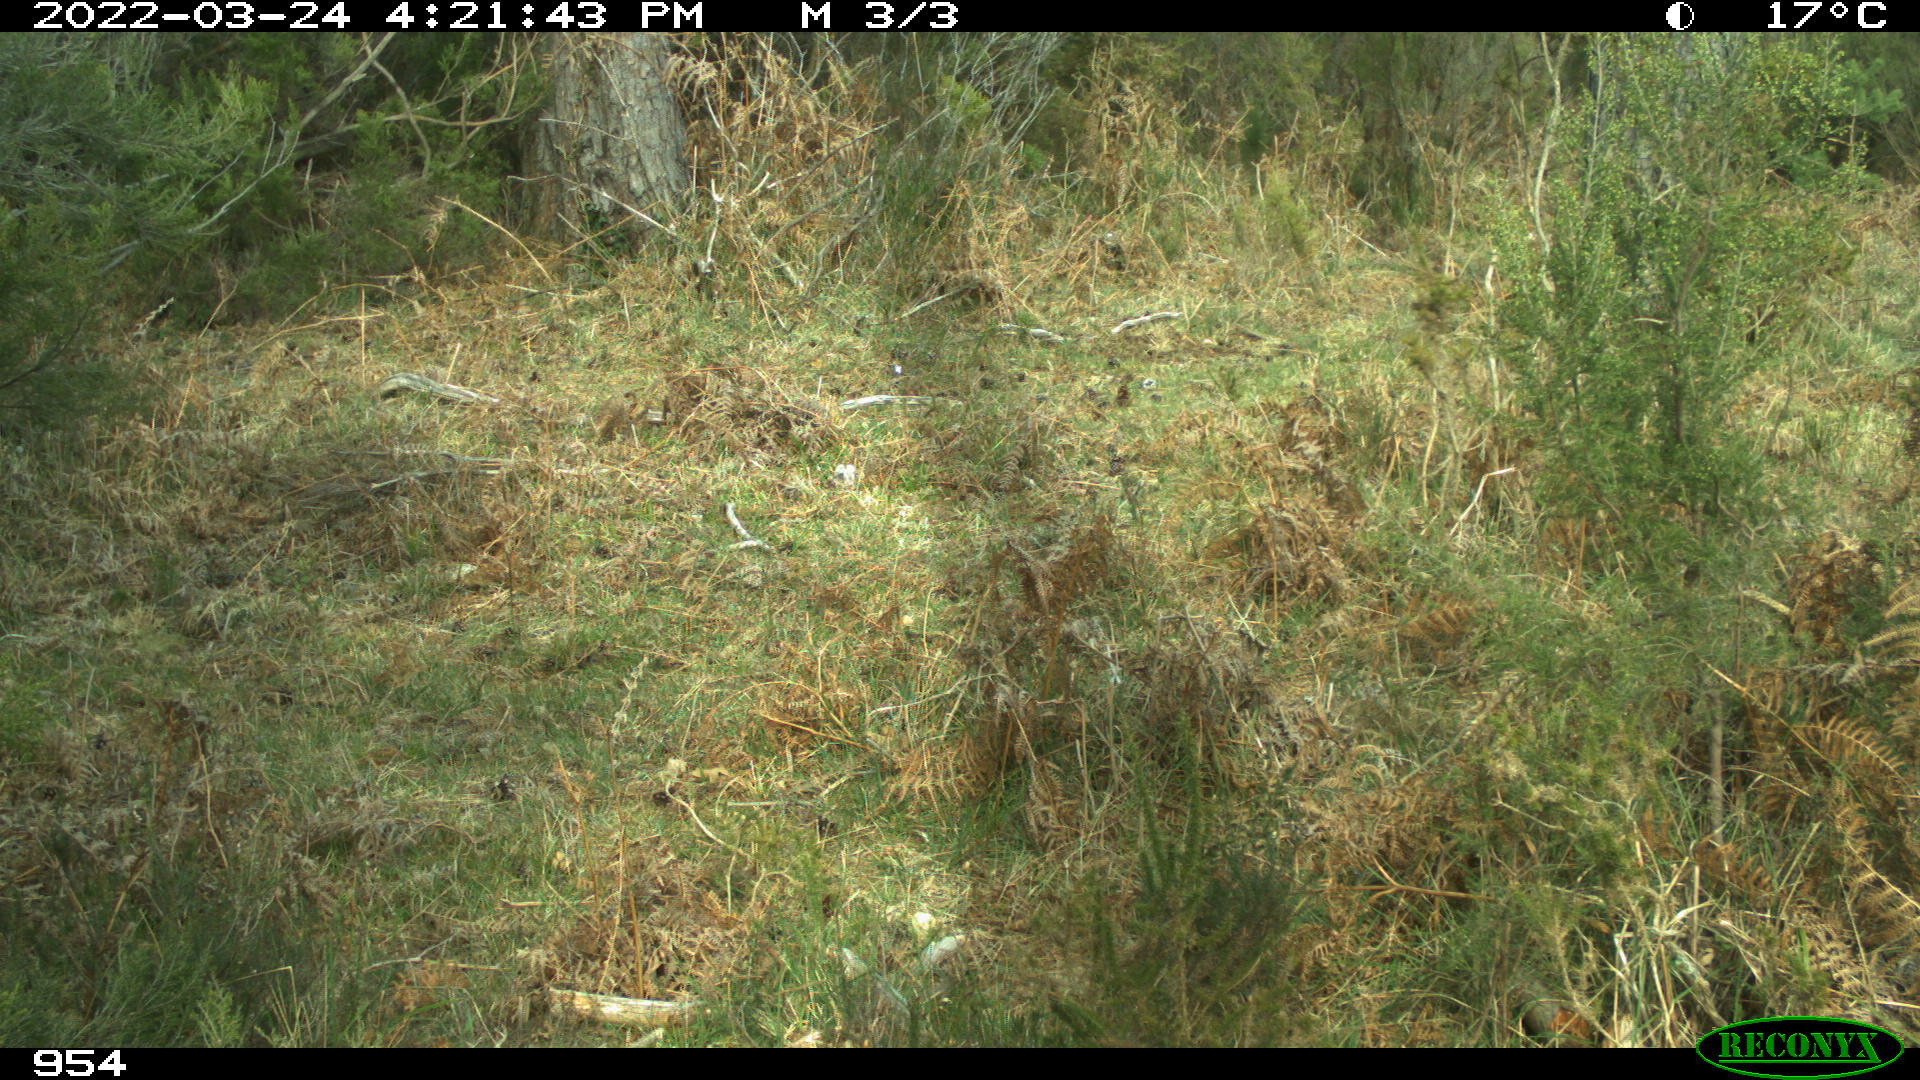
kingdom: Animalia
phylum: Chordata
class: Mammalia
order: Artiodactyla
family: Bovidae
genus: Bos
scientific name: Bos taurus
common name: Domesticated cattle
